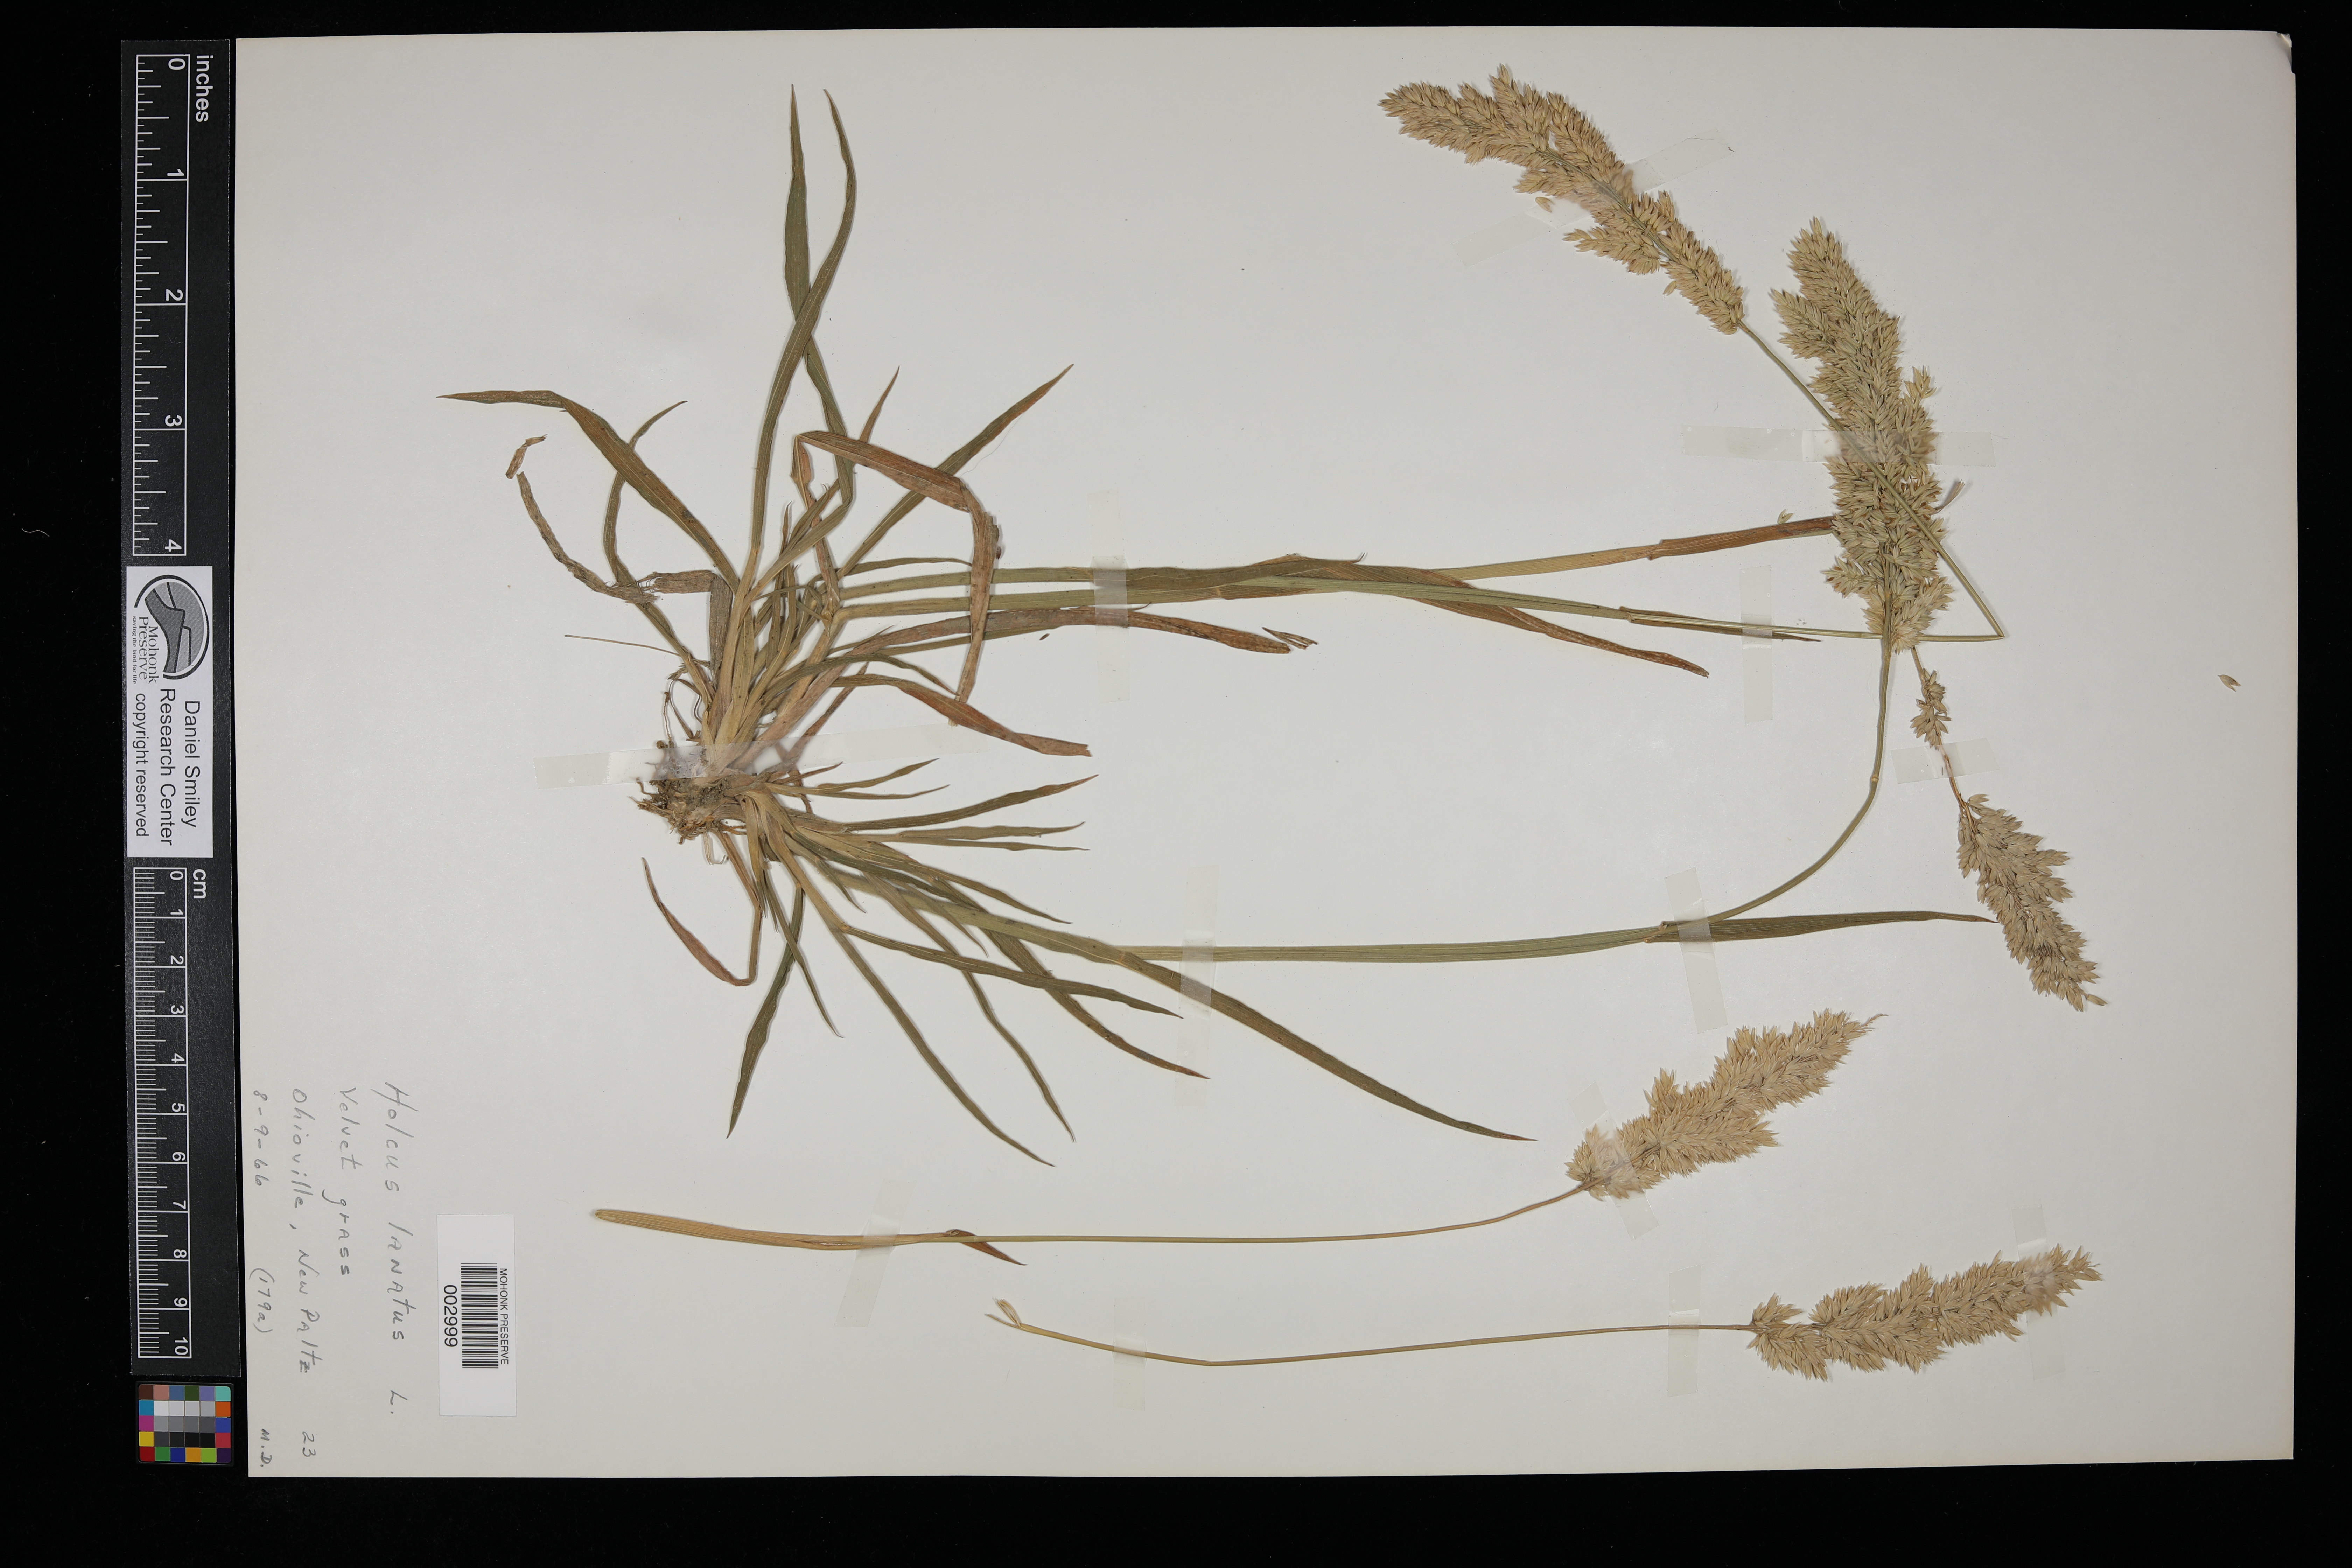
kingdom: Plantae
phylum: Tracheophyta
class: Liliopsida
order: Poales
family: Poaceae
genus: Holcus
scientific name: Holcus lanatus
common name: Yorkshire-fog
